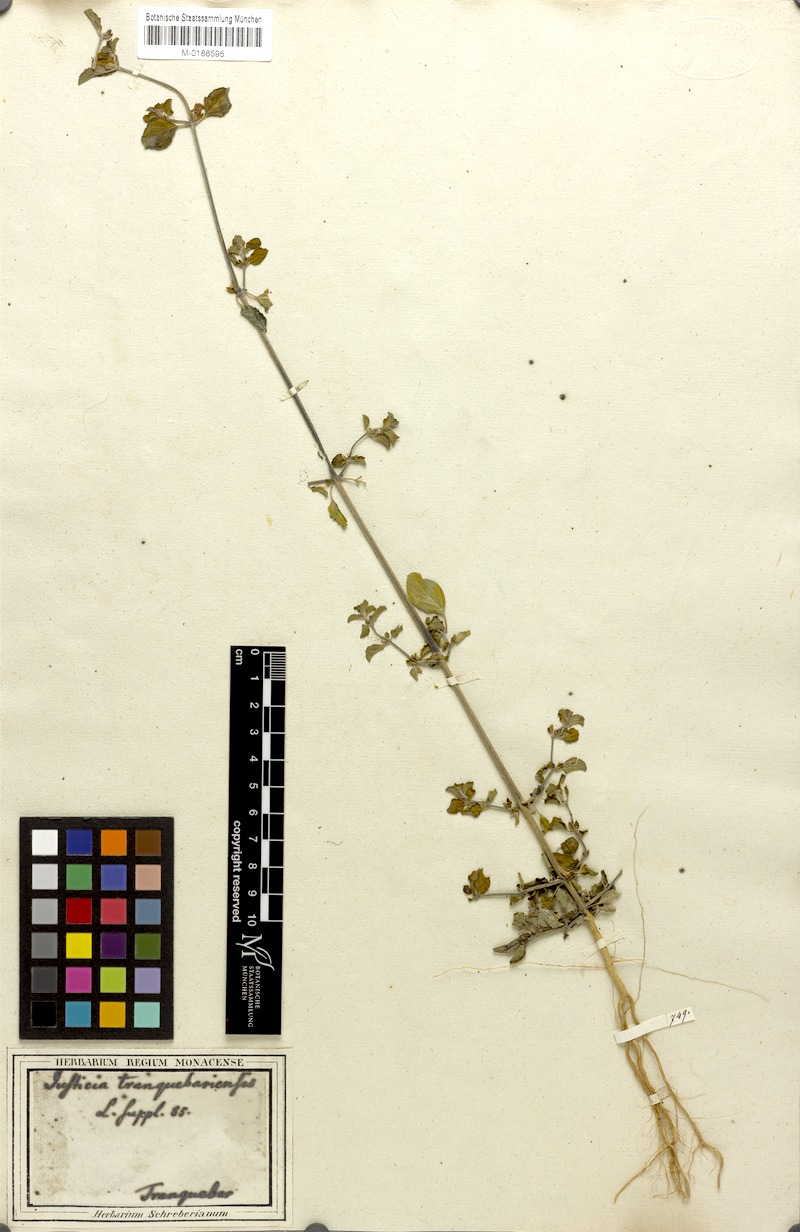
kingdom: Plantae
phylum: Tracheophyta
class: Magnoliopsida
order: Lamiales
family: Acanthaceae
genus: Justicia
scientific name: Justicia tranquebariensis
